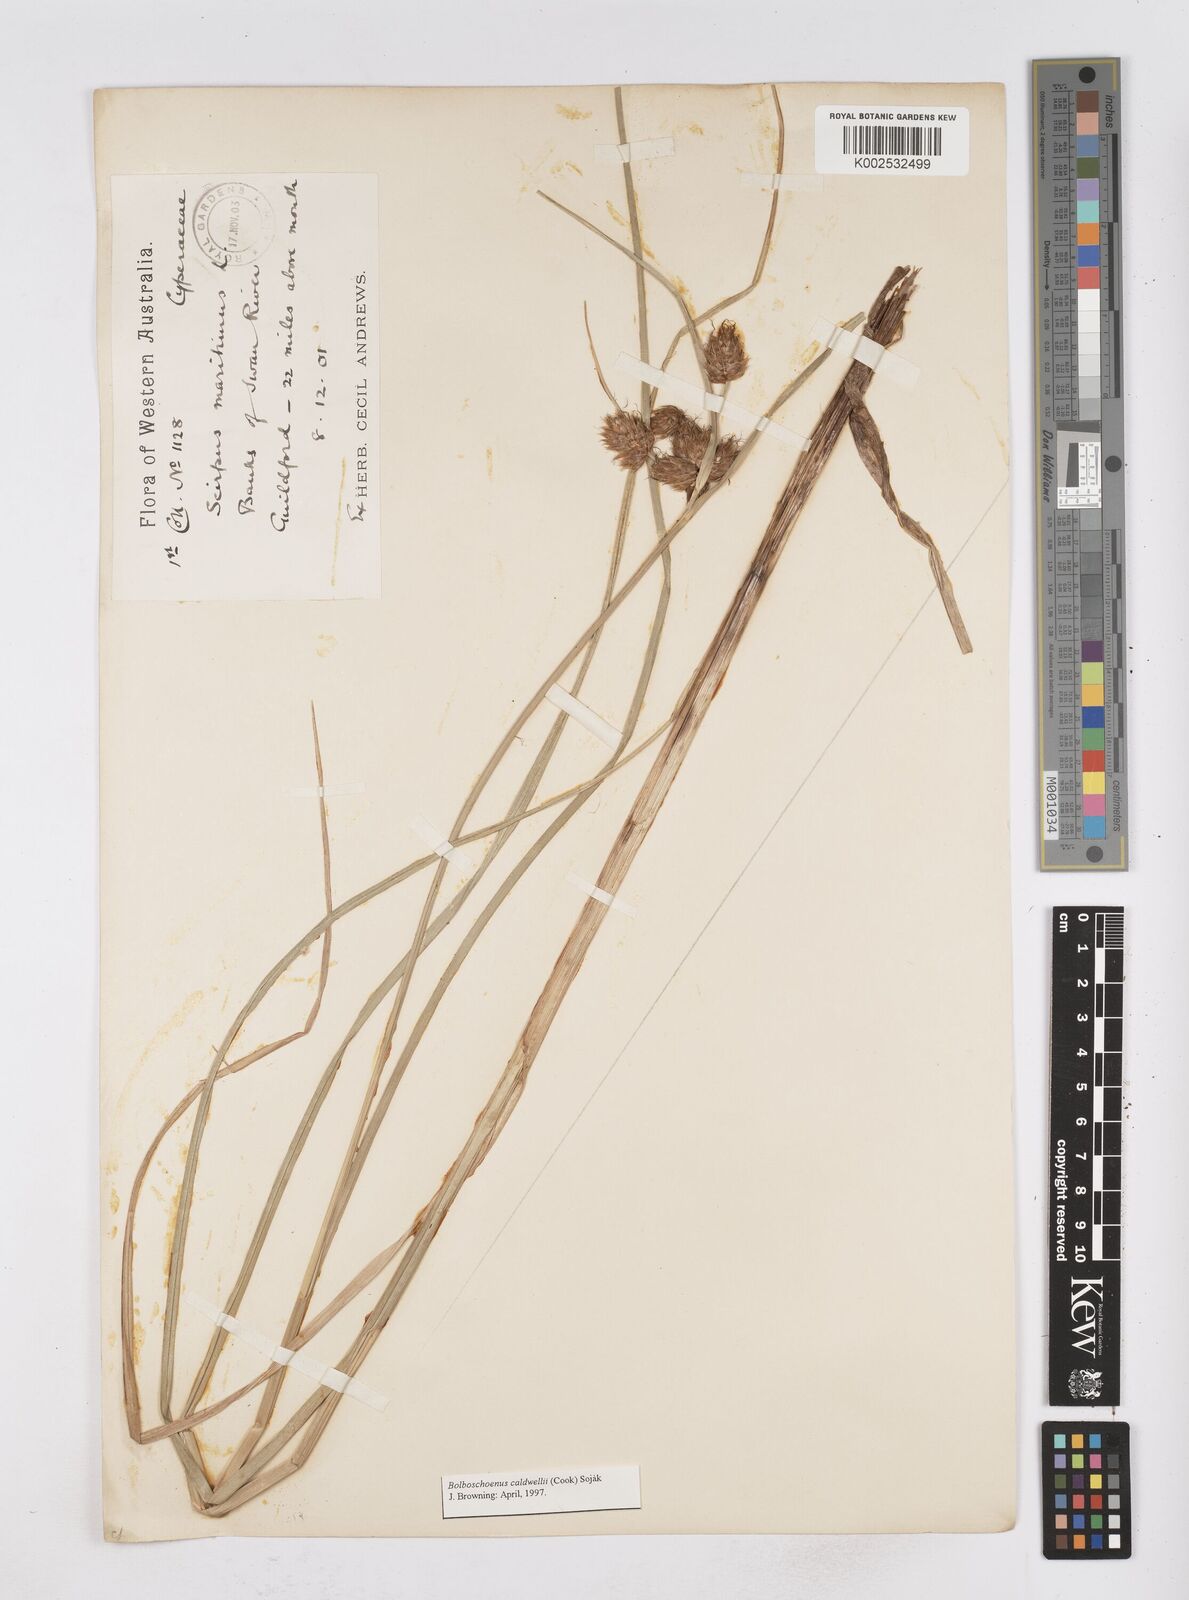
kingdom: Plantae
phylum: Tracheophyta
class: Liliopsida
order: Poales
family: Cyperaceae
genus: Bolboschoenus
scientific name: Bolboschoenus maritimus
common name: Sea club-rush
